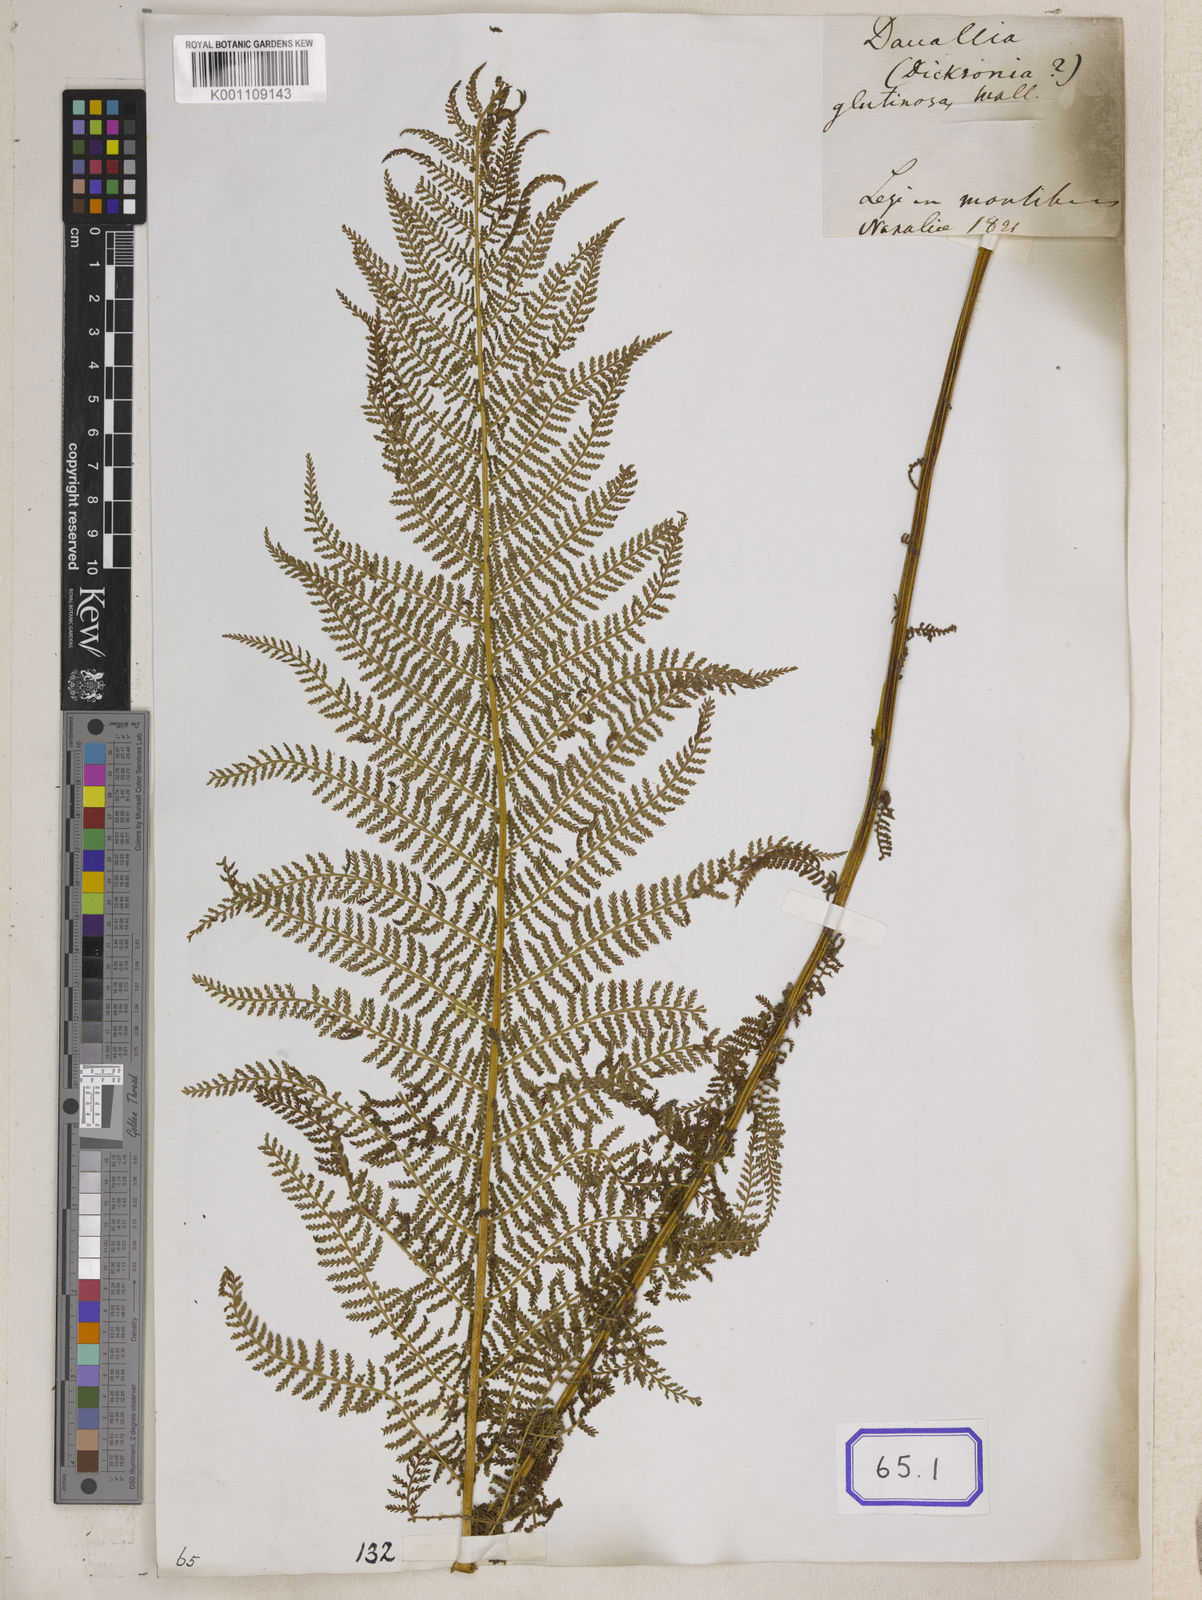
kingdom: Plantae
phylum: Tracheophyta
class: Polypodiopsida
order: Polypodiales
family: Dennstaedtiaceae
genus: Sitobolium
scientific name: Sitobolium appendiculatum
